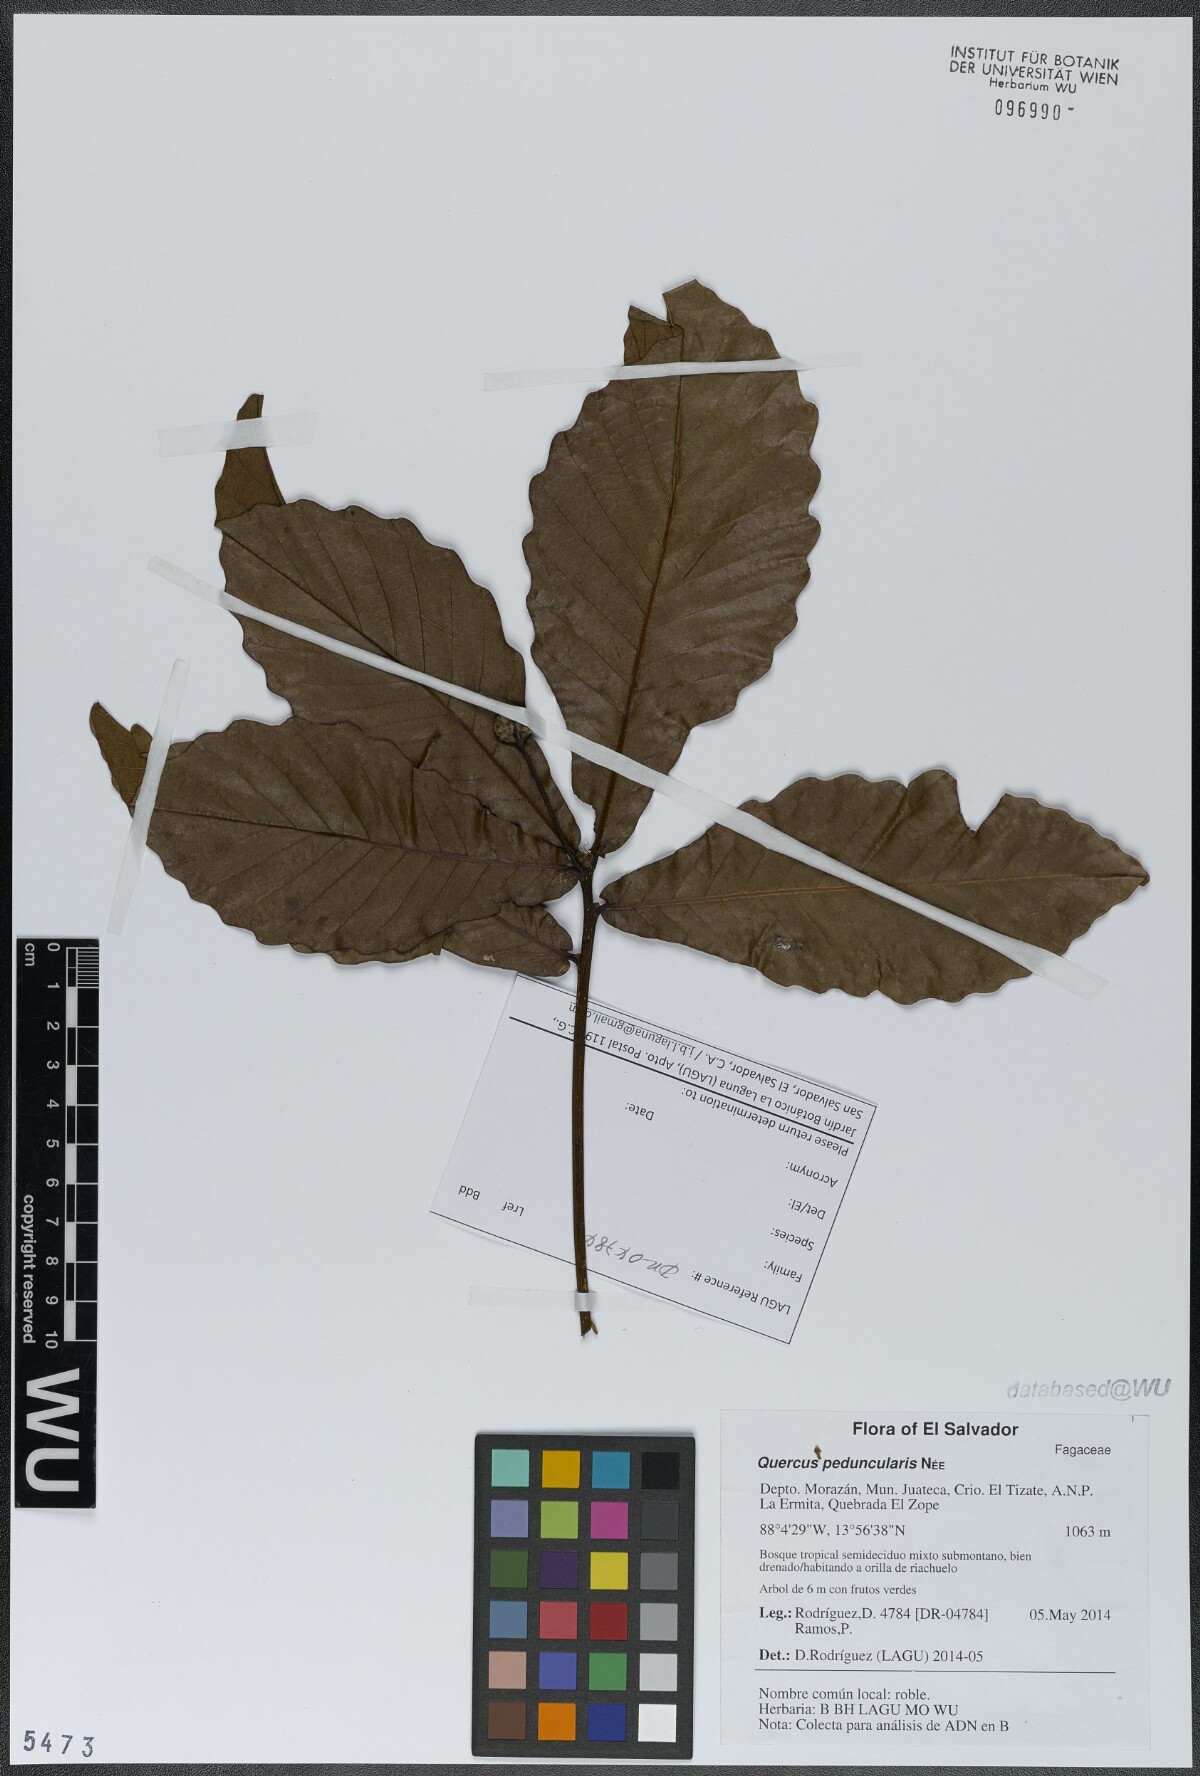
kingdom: Plantae
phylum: Tracheophyta
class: Magnoliopsida
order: Fagales
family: Fagaceae
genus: Quercus
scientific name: Quercus segoviensis
